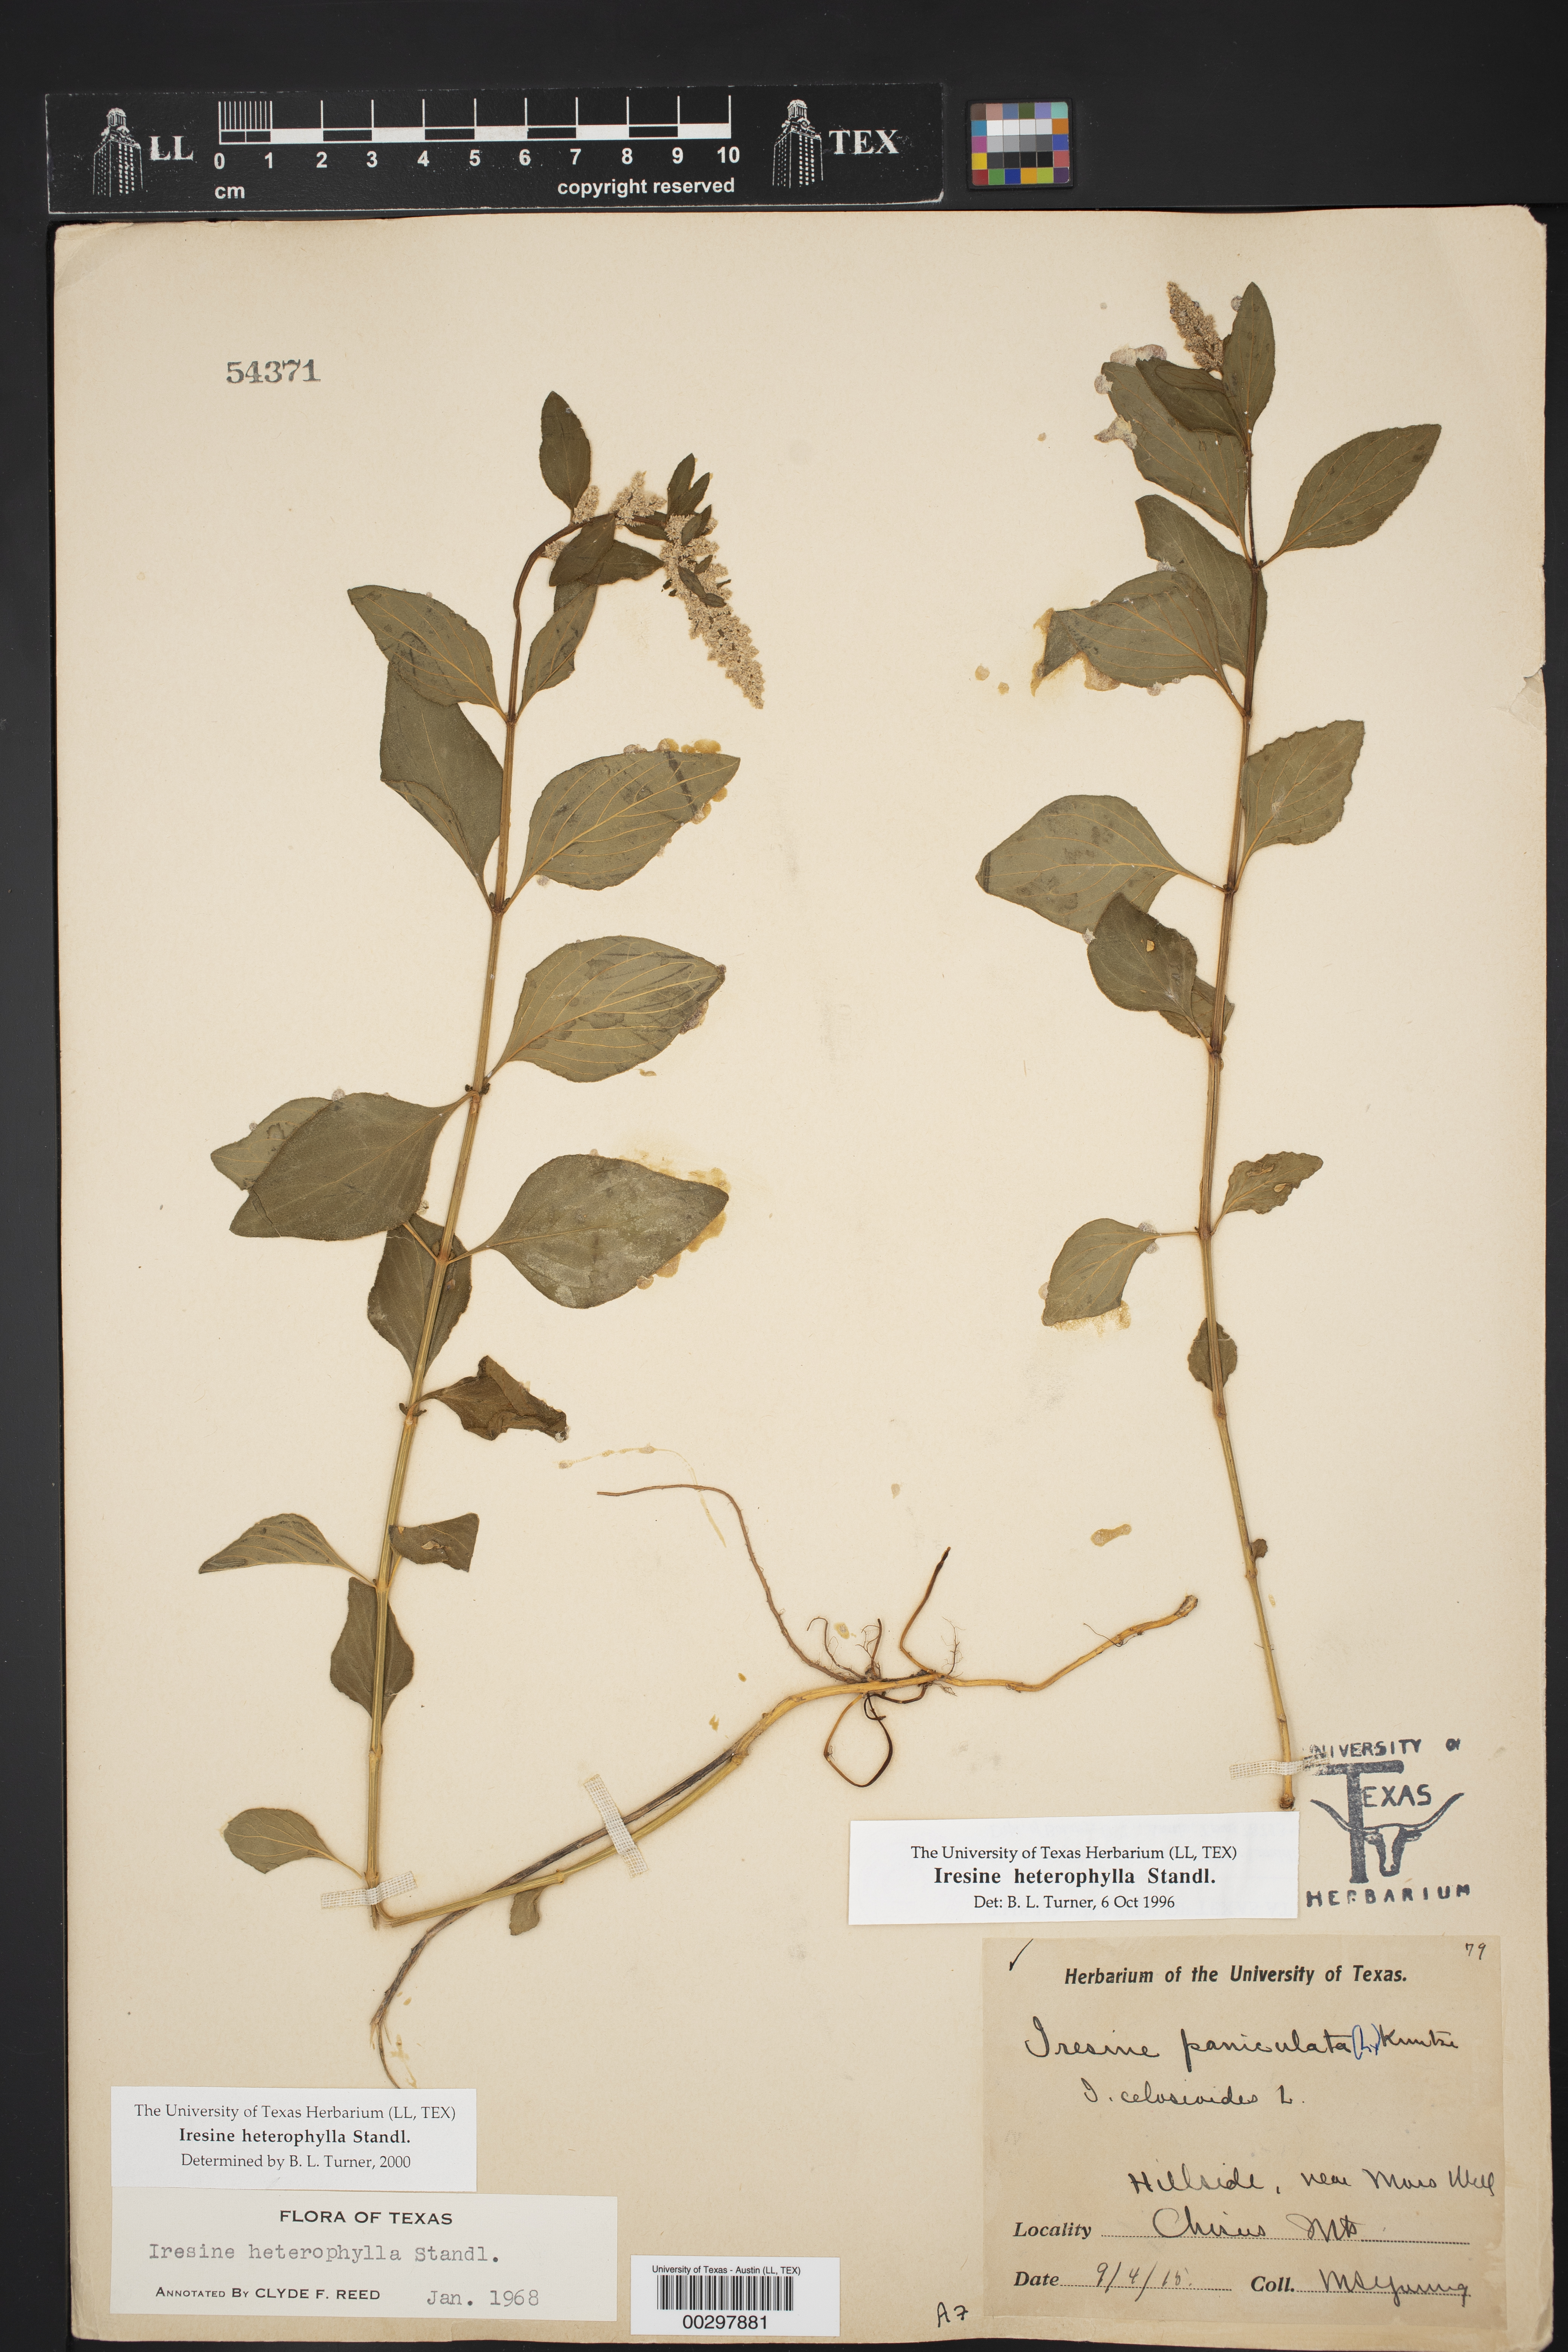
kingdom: Plantae
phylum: Tracheophyta
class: Magnoliopsida
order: Caryophyllales
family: Amaranthaceae
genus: Iresine
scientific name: Iresine heterophylla
